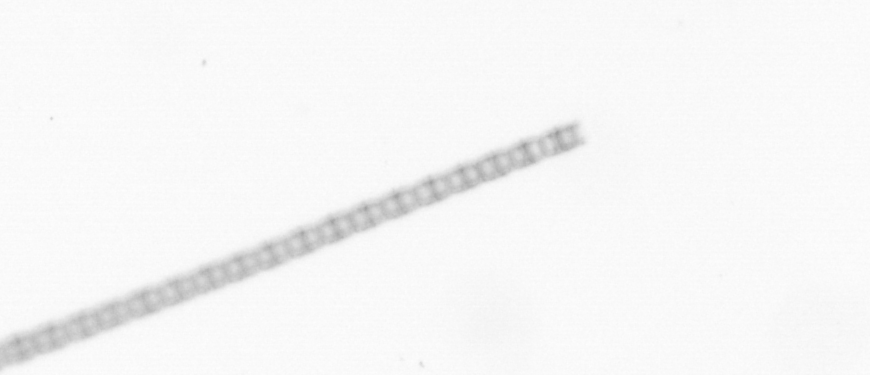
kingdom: Chromista
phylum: Ochrophyta
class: Bacillariophyceae
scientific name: Bacillariophyceae
